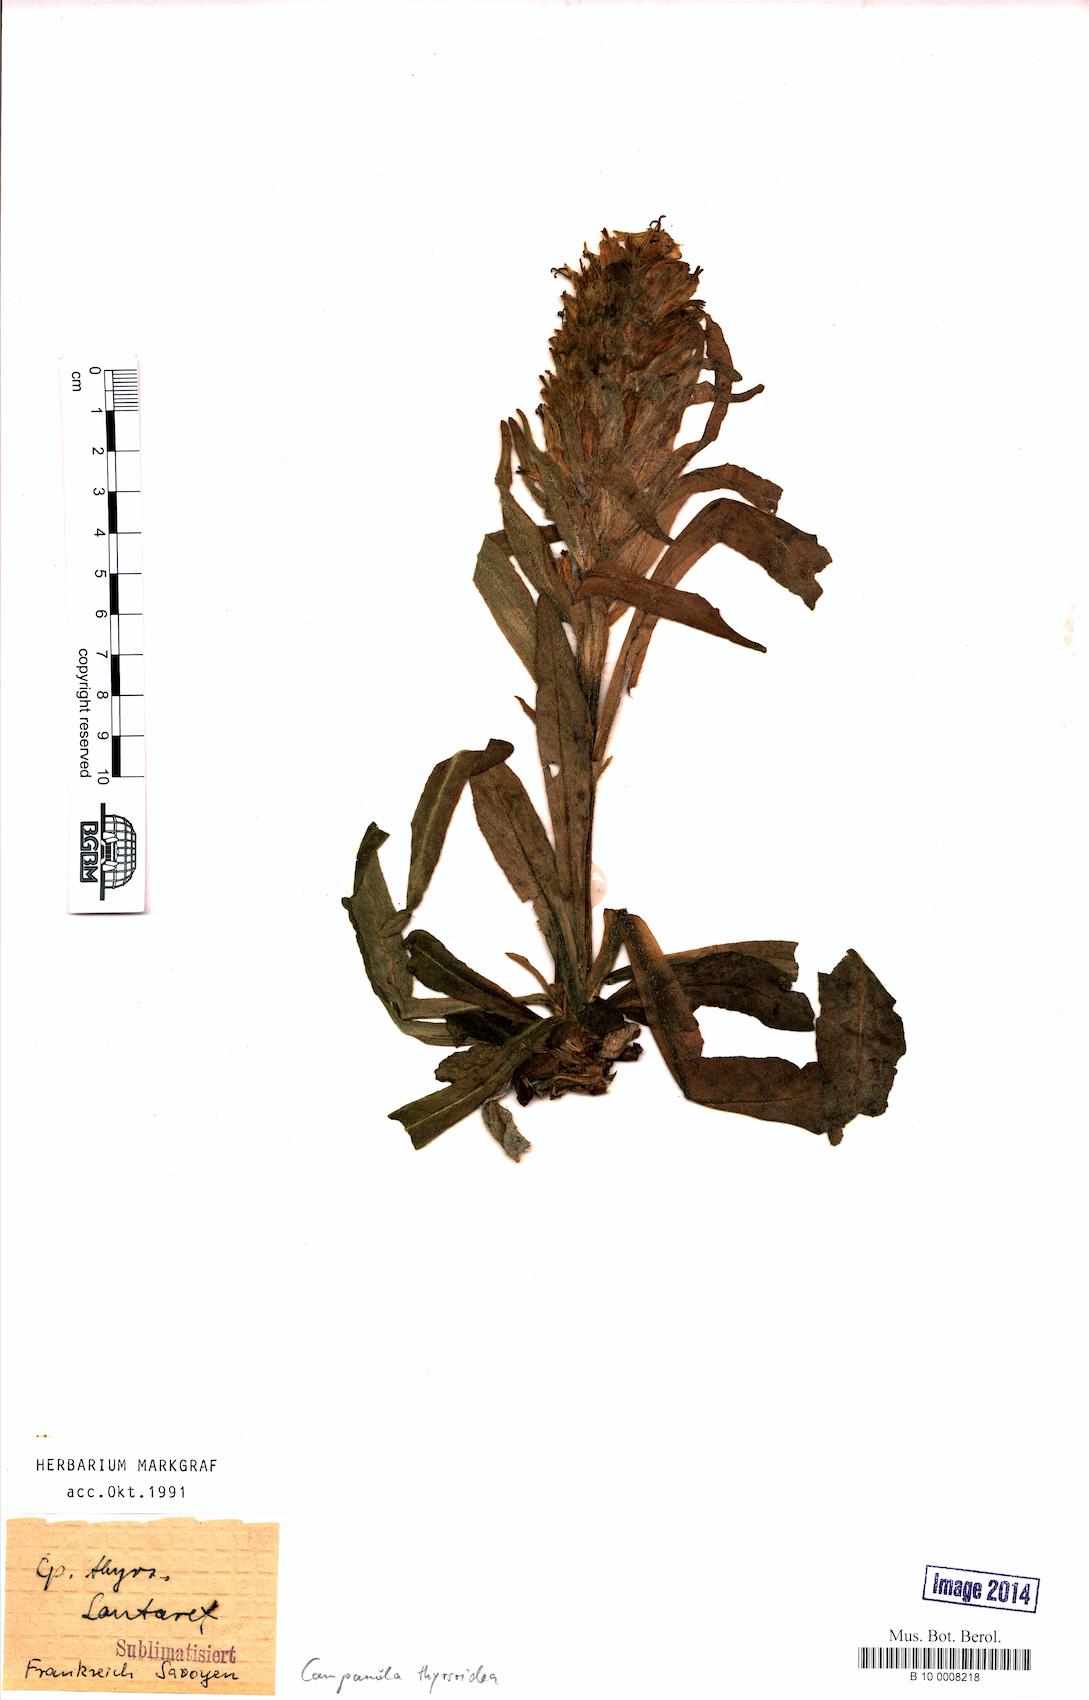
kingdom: Plantae
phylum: Tracheophyta
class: Magnoliopsida
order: Asterales
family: Campanulaceae
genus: Campanula
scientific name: Campanula thyrsoides
